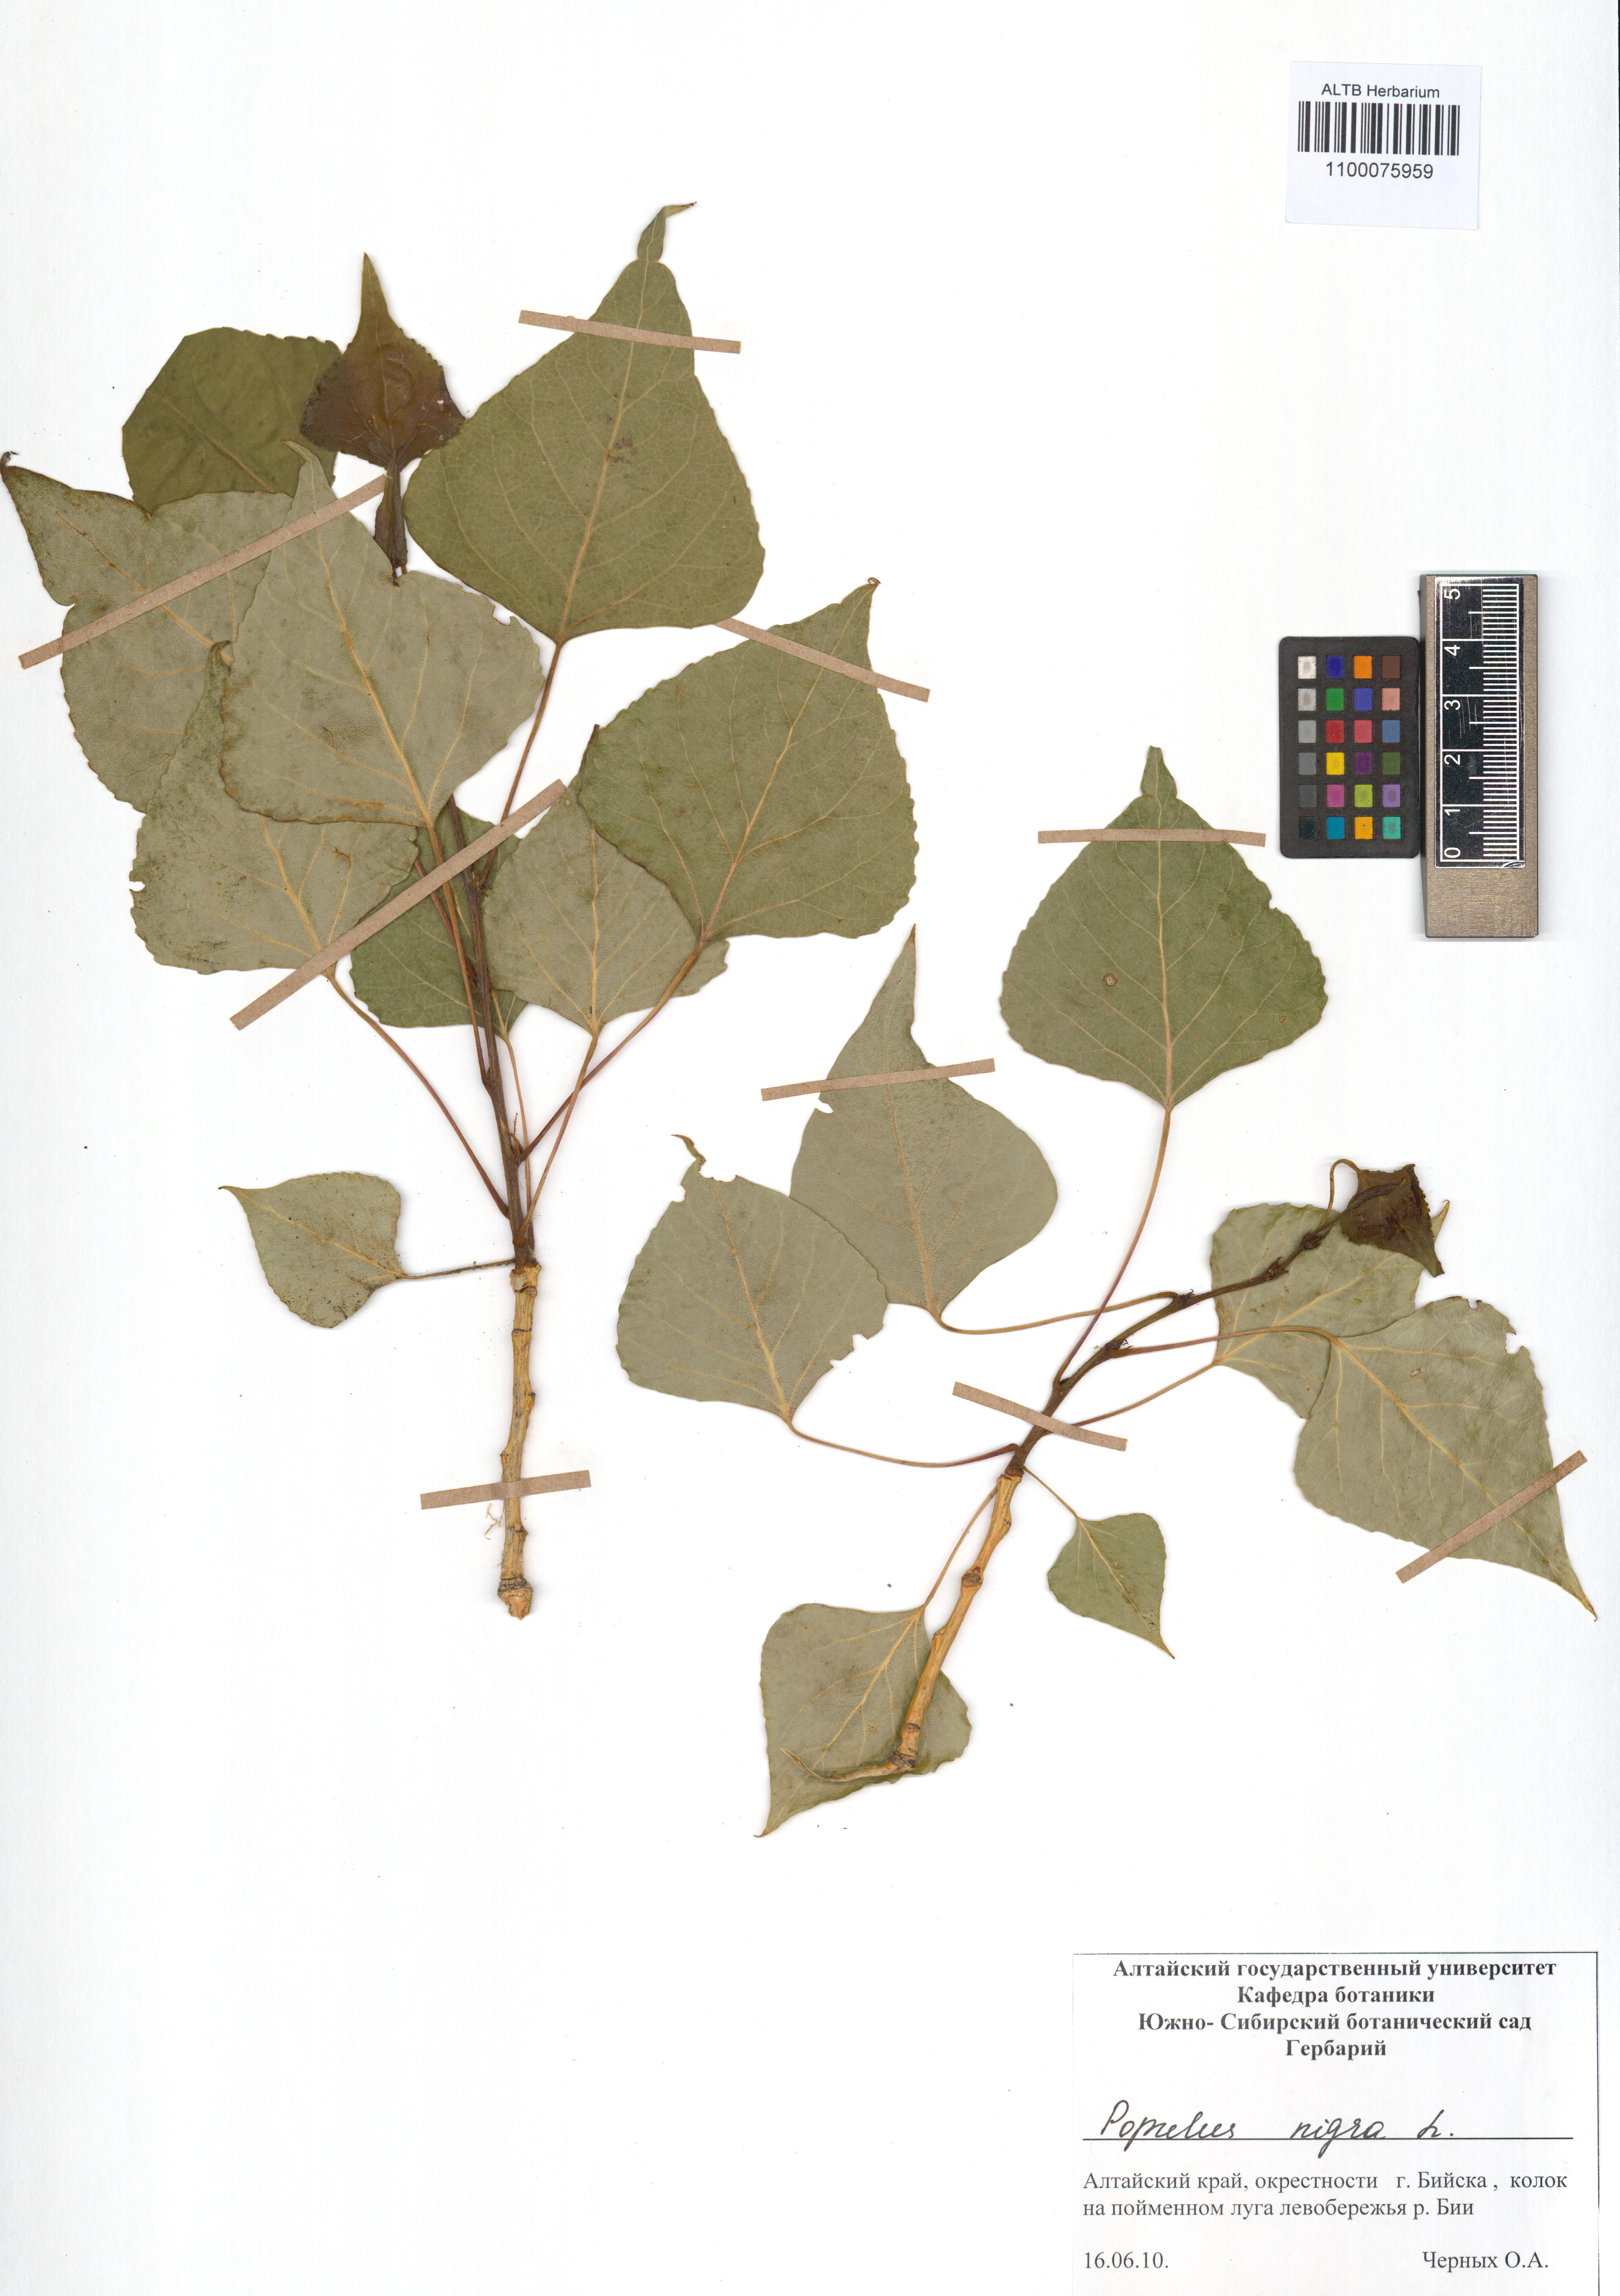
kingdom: Plantae
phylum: Tracheophyta
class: Magnoliopsida
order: Malpighiales
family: Salicaceae
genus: Populus
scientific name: Populus nigra
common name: Black poplar
